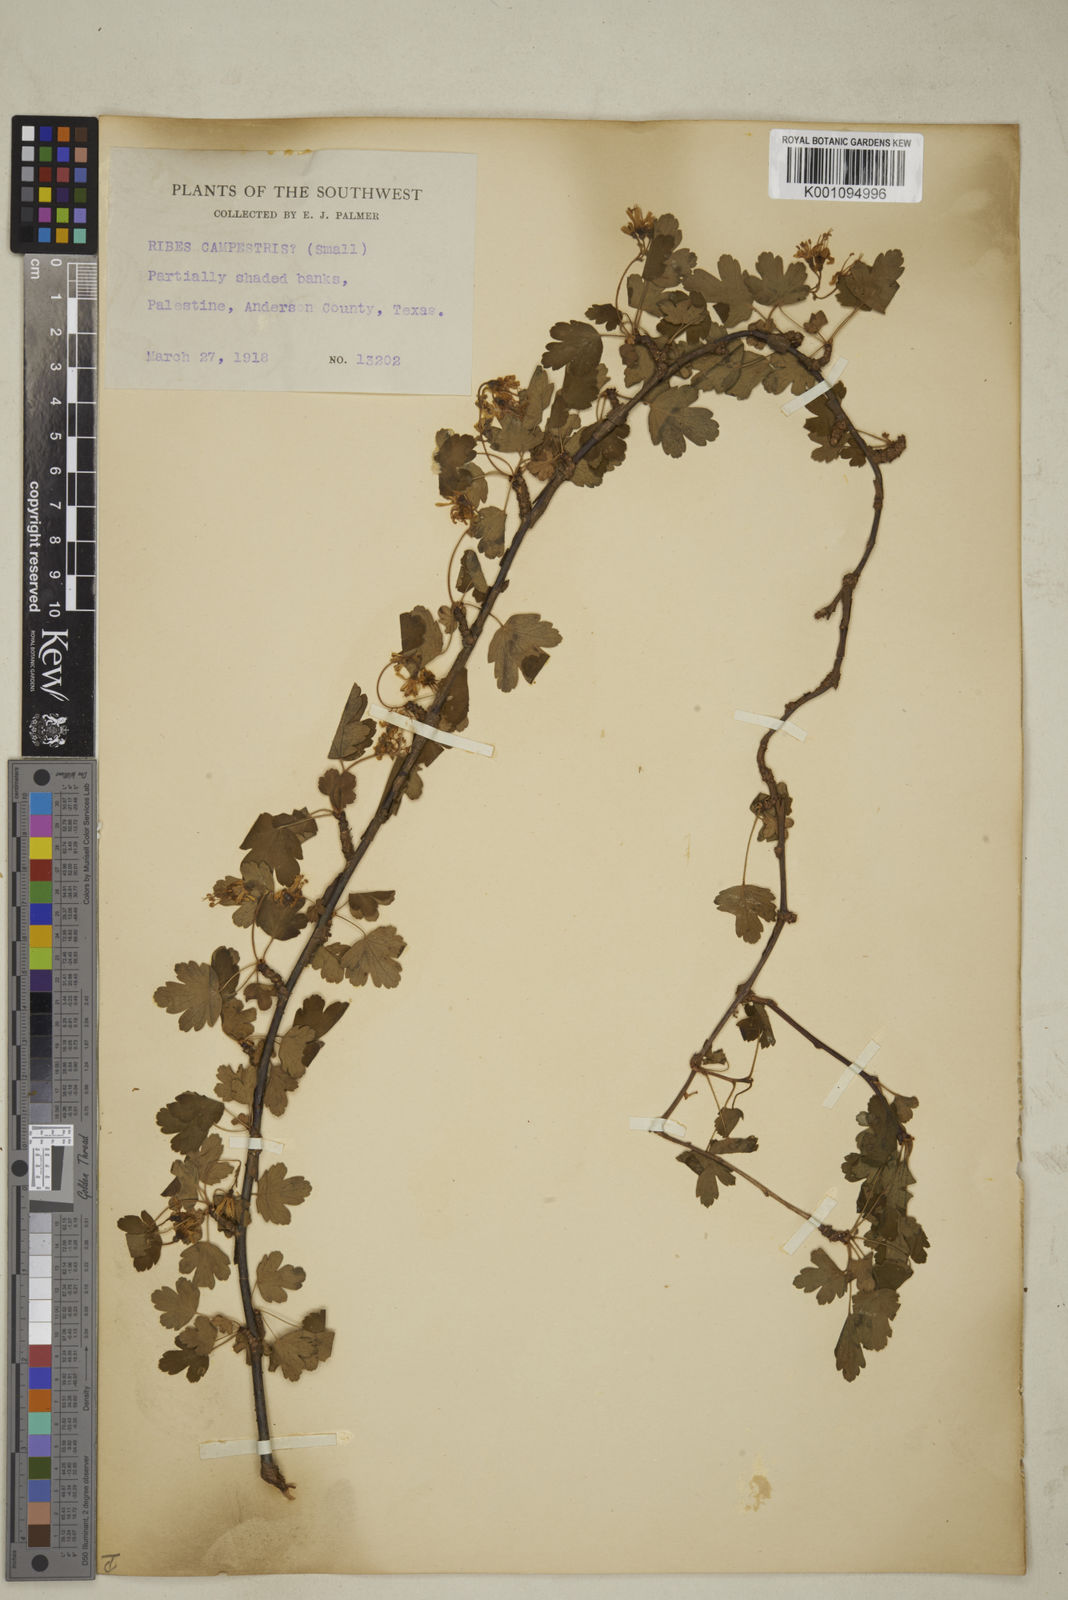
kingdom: Plantae
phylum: Tracheophyta
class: Magnoliopsida
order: Saxifragales
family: Grossulariaceae
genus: Ribes
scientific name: Ribes
